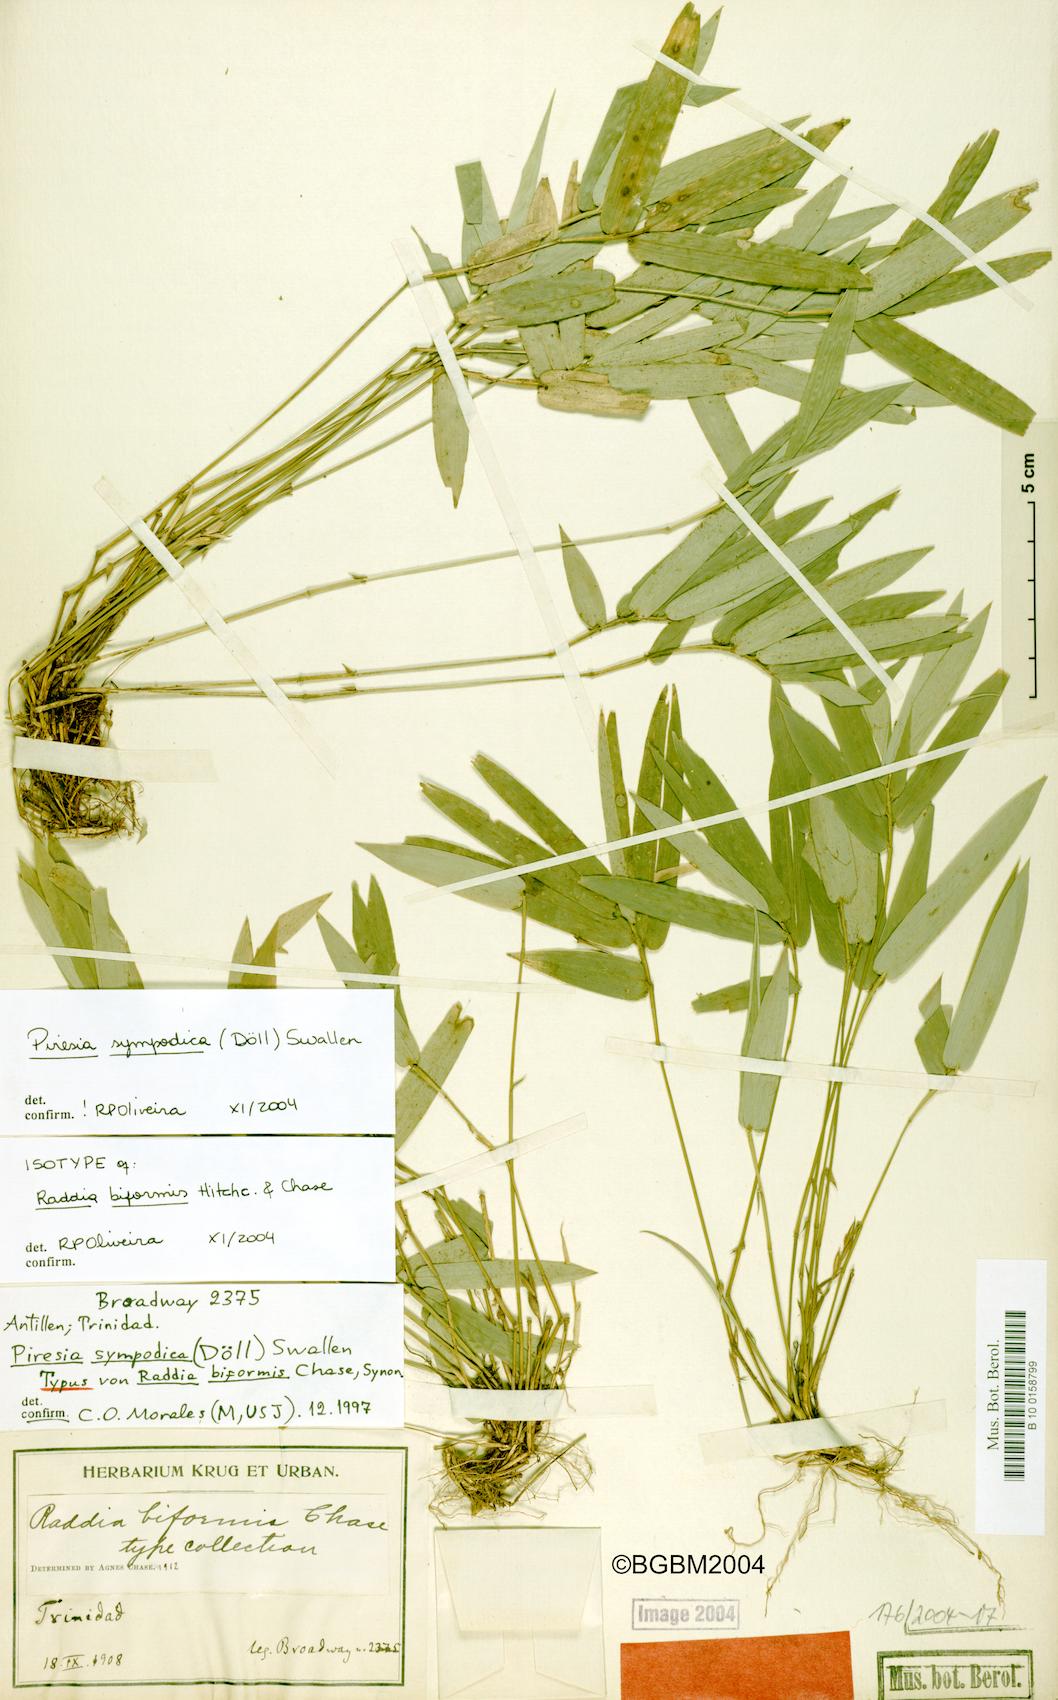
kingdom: Plantae
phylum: Tracheophyta
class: Liliopsida
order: Poales
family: Poaceae
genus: Piresia
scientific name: Piresia sympodica
